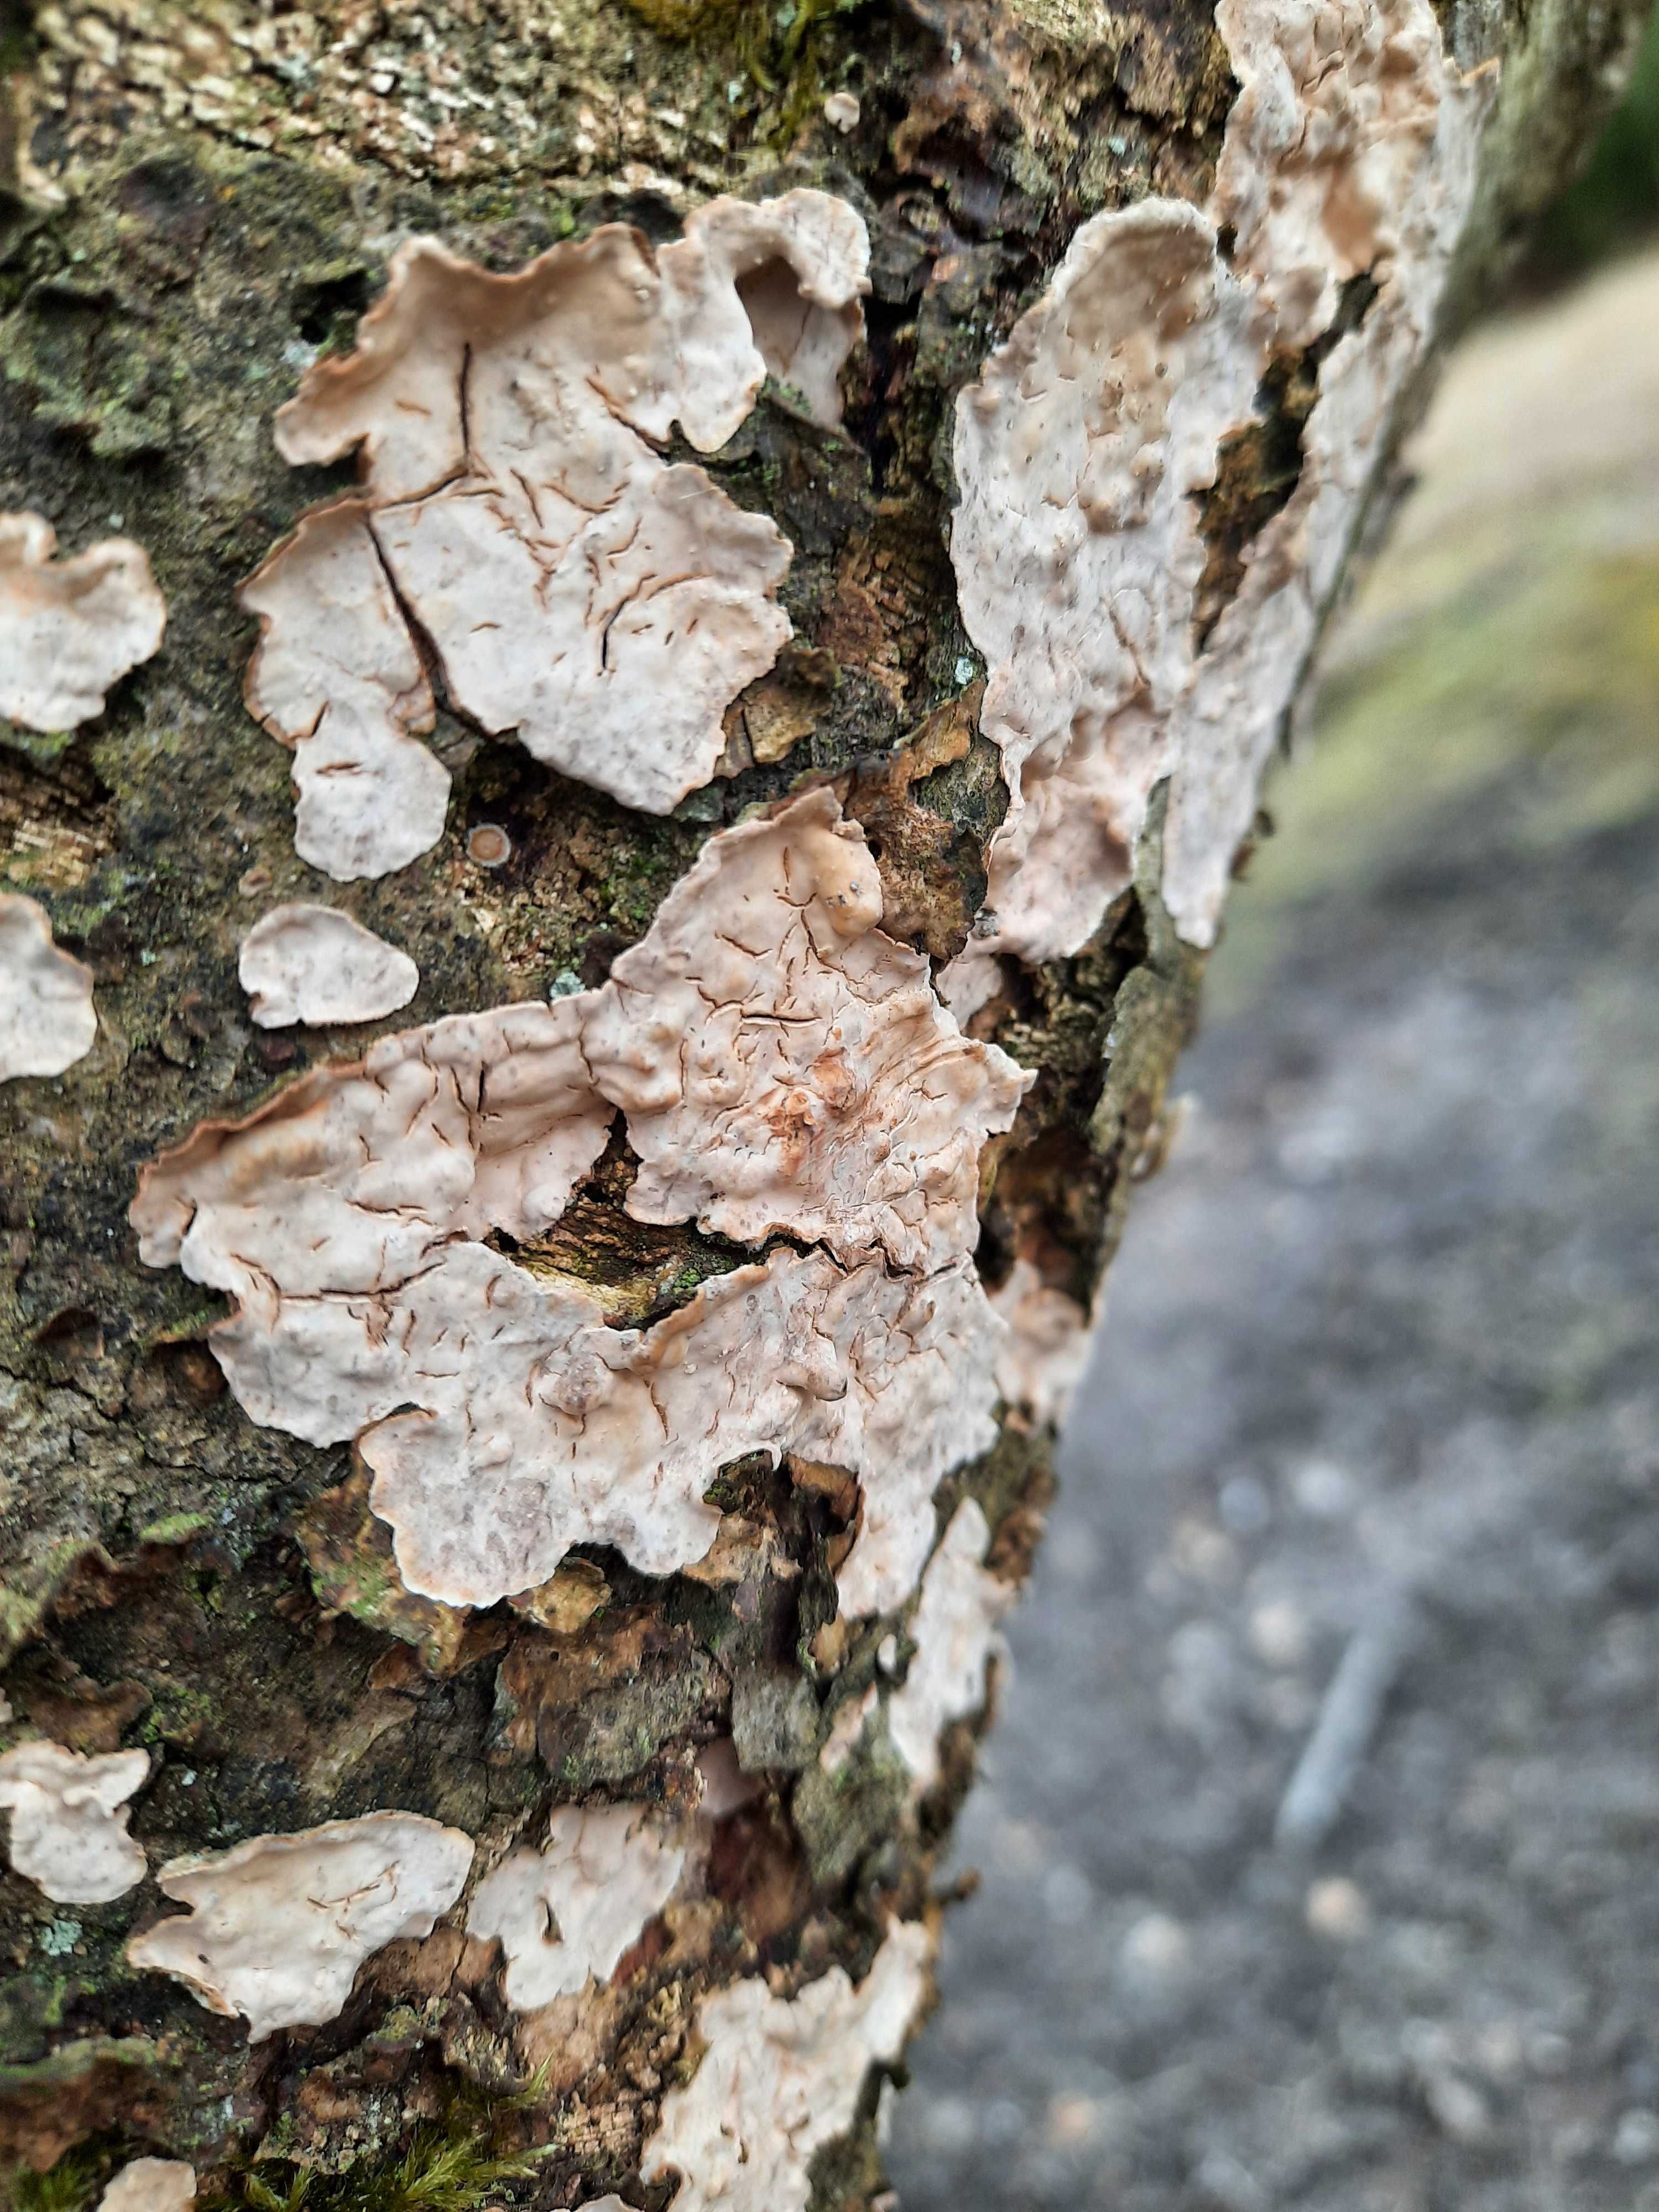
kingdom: Fungi
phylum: Basidiomycota
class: Agaricomycetes
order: Russulales
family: Stereaceae
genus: Stereum
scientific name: Stereum rugosum
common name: rynket lædersvamp
